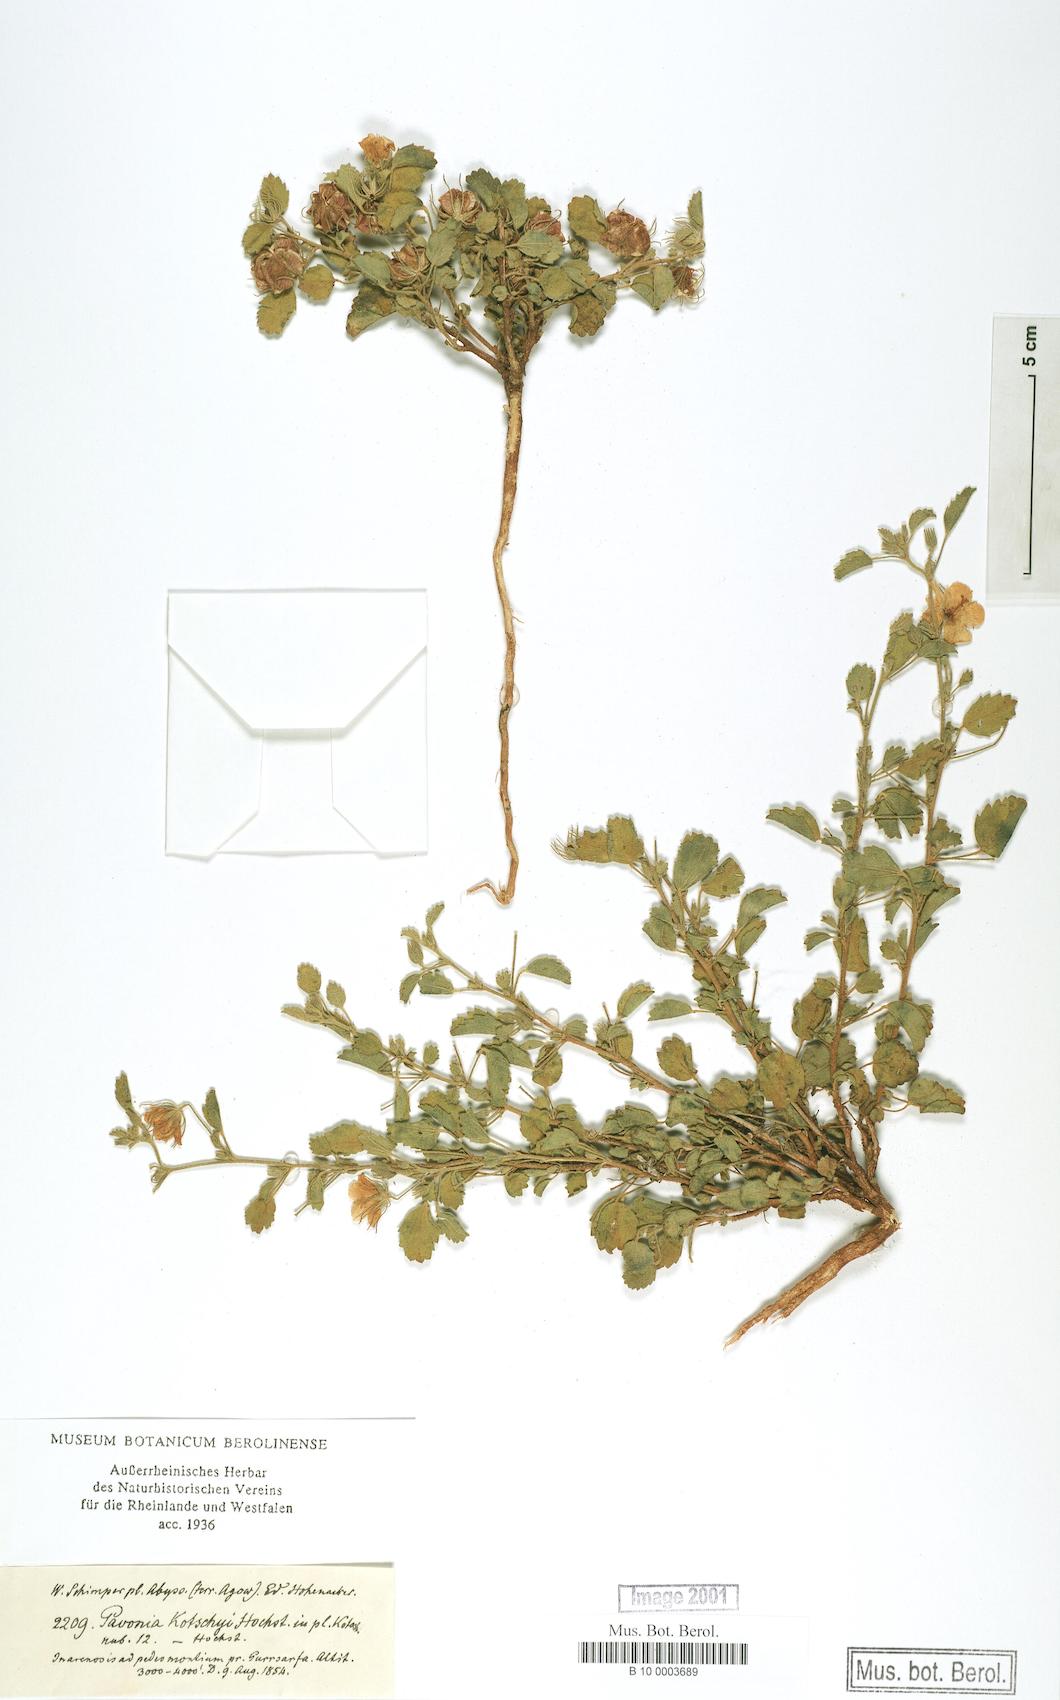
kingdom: Plantae
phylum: Tracheophyta
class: Magnoliopsida
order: Malvales
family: Malvaceae
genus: Pavonia
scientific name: Pavonia kotschyi
